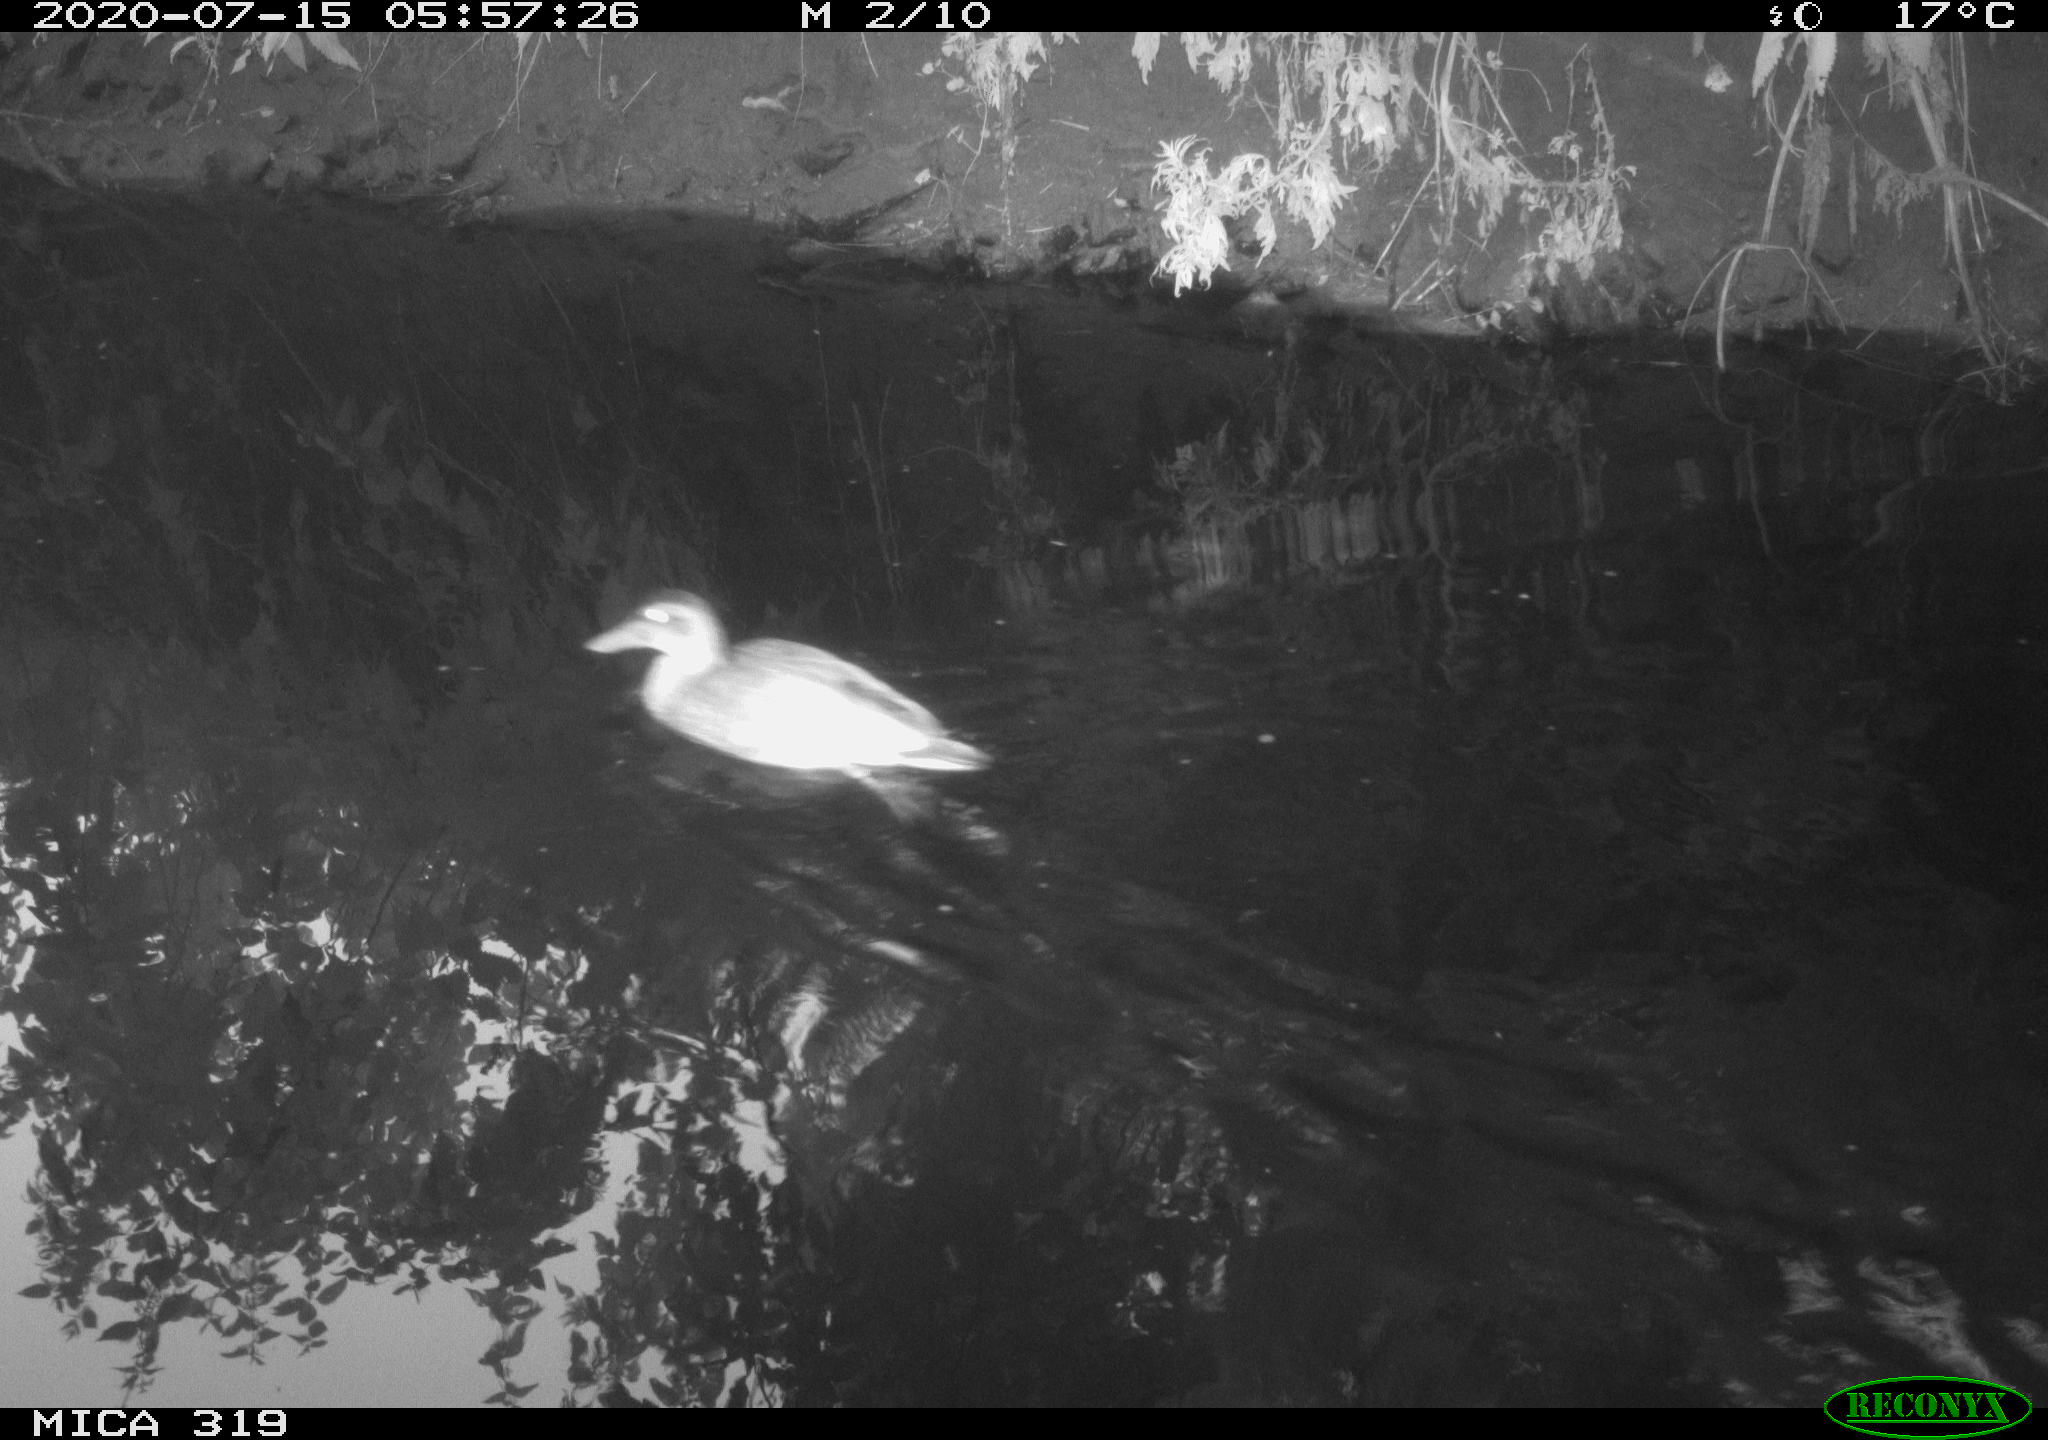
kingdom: Animalia
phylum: Chordata
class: Aves
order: Anseriformes
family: Anatidae
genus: Anas
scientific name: Anas platyrhynchos
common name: Mallard
